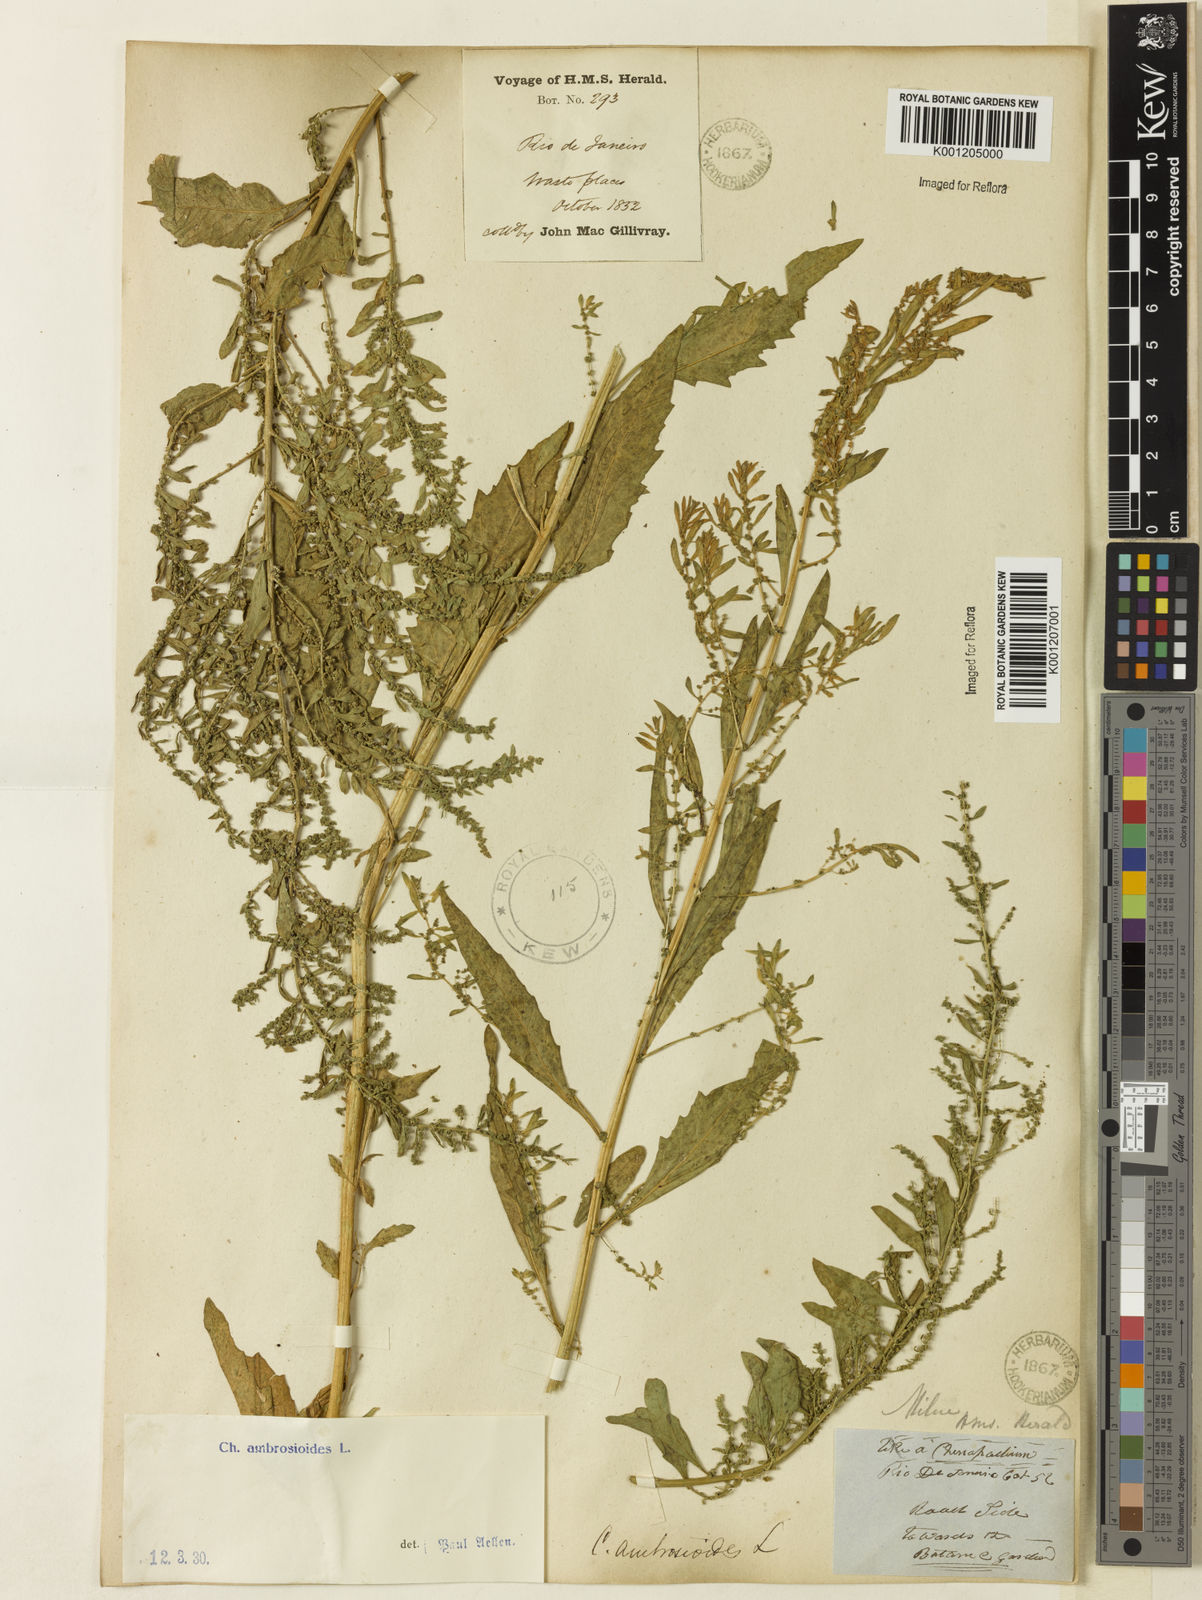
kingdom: Plantae
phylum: Tracheophyta
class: Magnoliopsida
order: Caryophyllales
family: Amaranthaceae
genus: Dysphania
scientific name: Dysphania ambrosioides
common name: Wormseed
